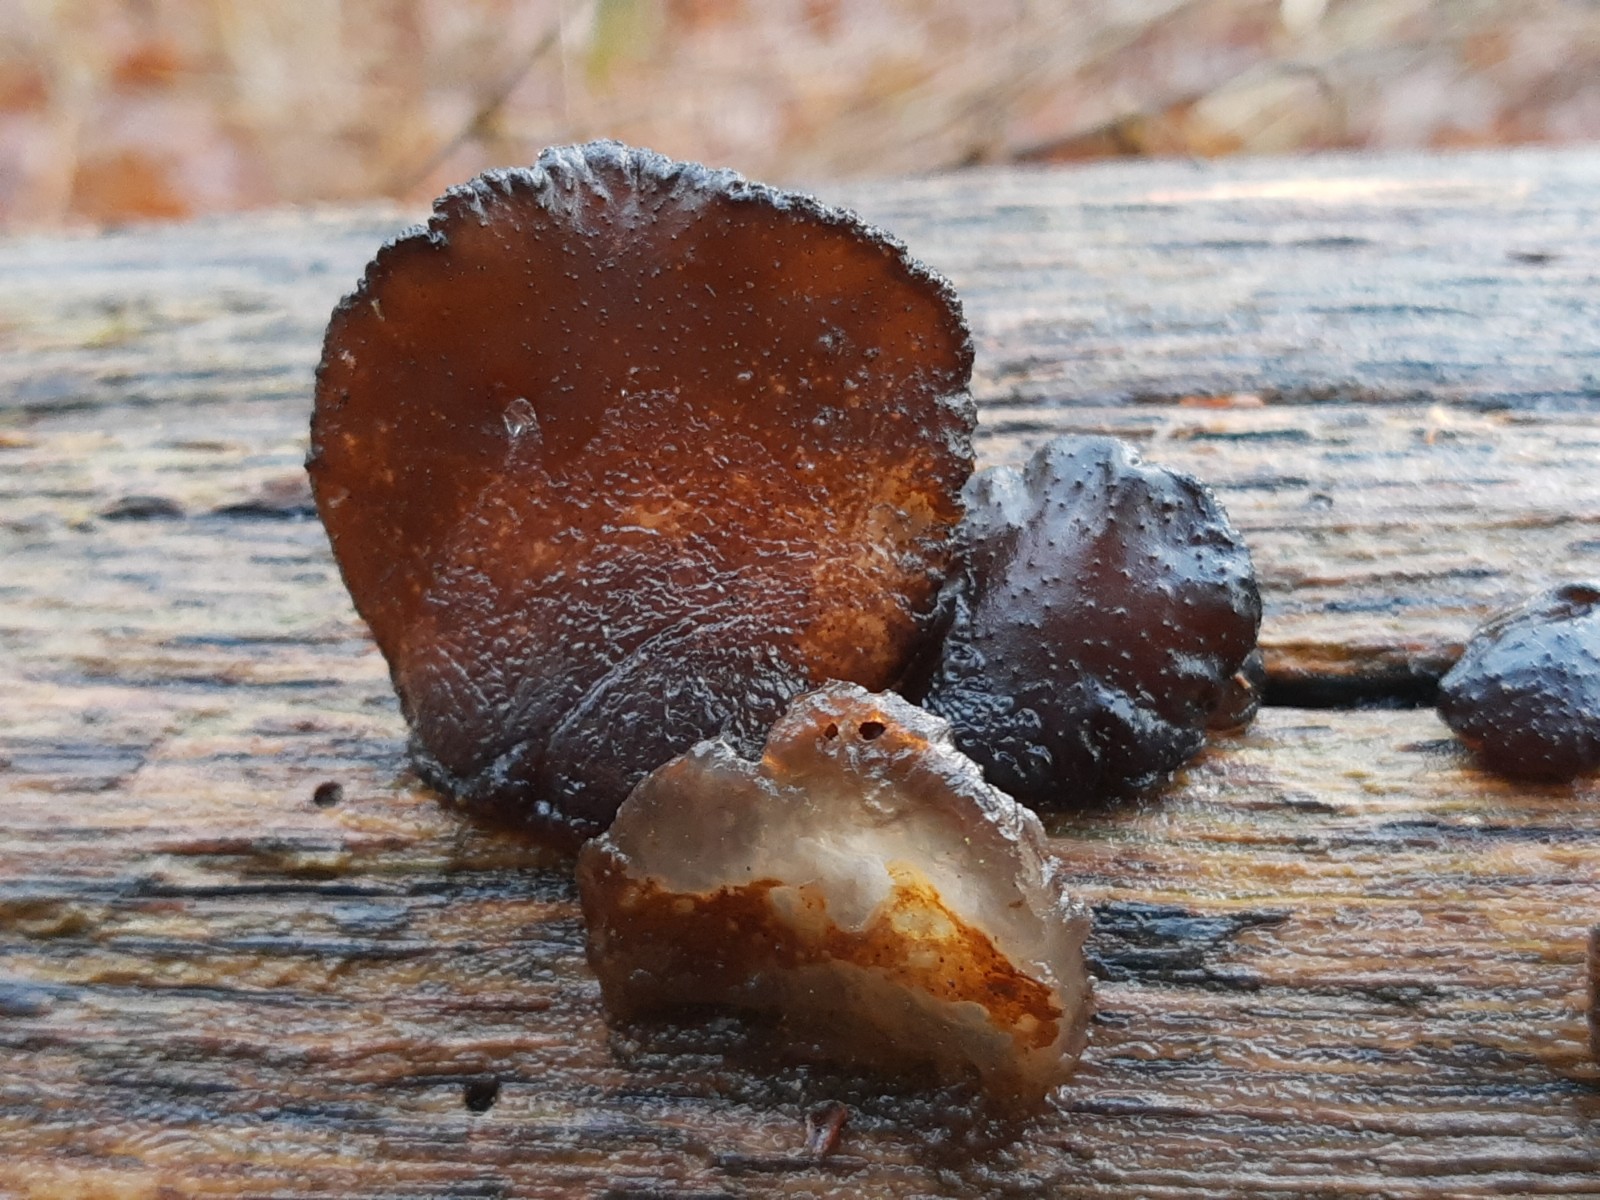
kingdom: Fungi
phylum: Basidiomycota
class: Agaricomycetes
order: Auriculariales
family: Auriculariaceae
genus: Exidia
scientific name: Exidia glandulosa
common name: ege-bævretop
